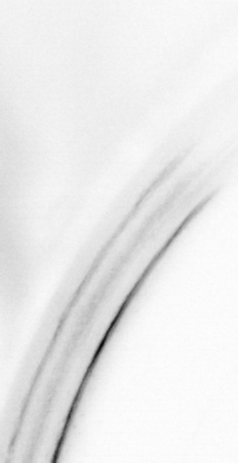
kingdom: Animalia
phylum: Chordata
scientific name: Chordata
